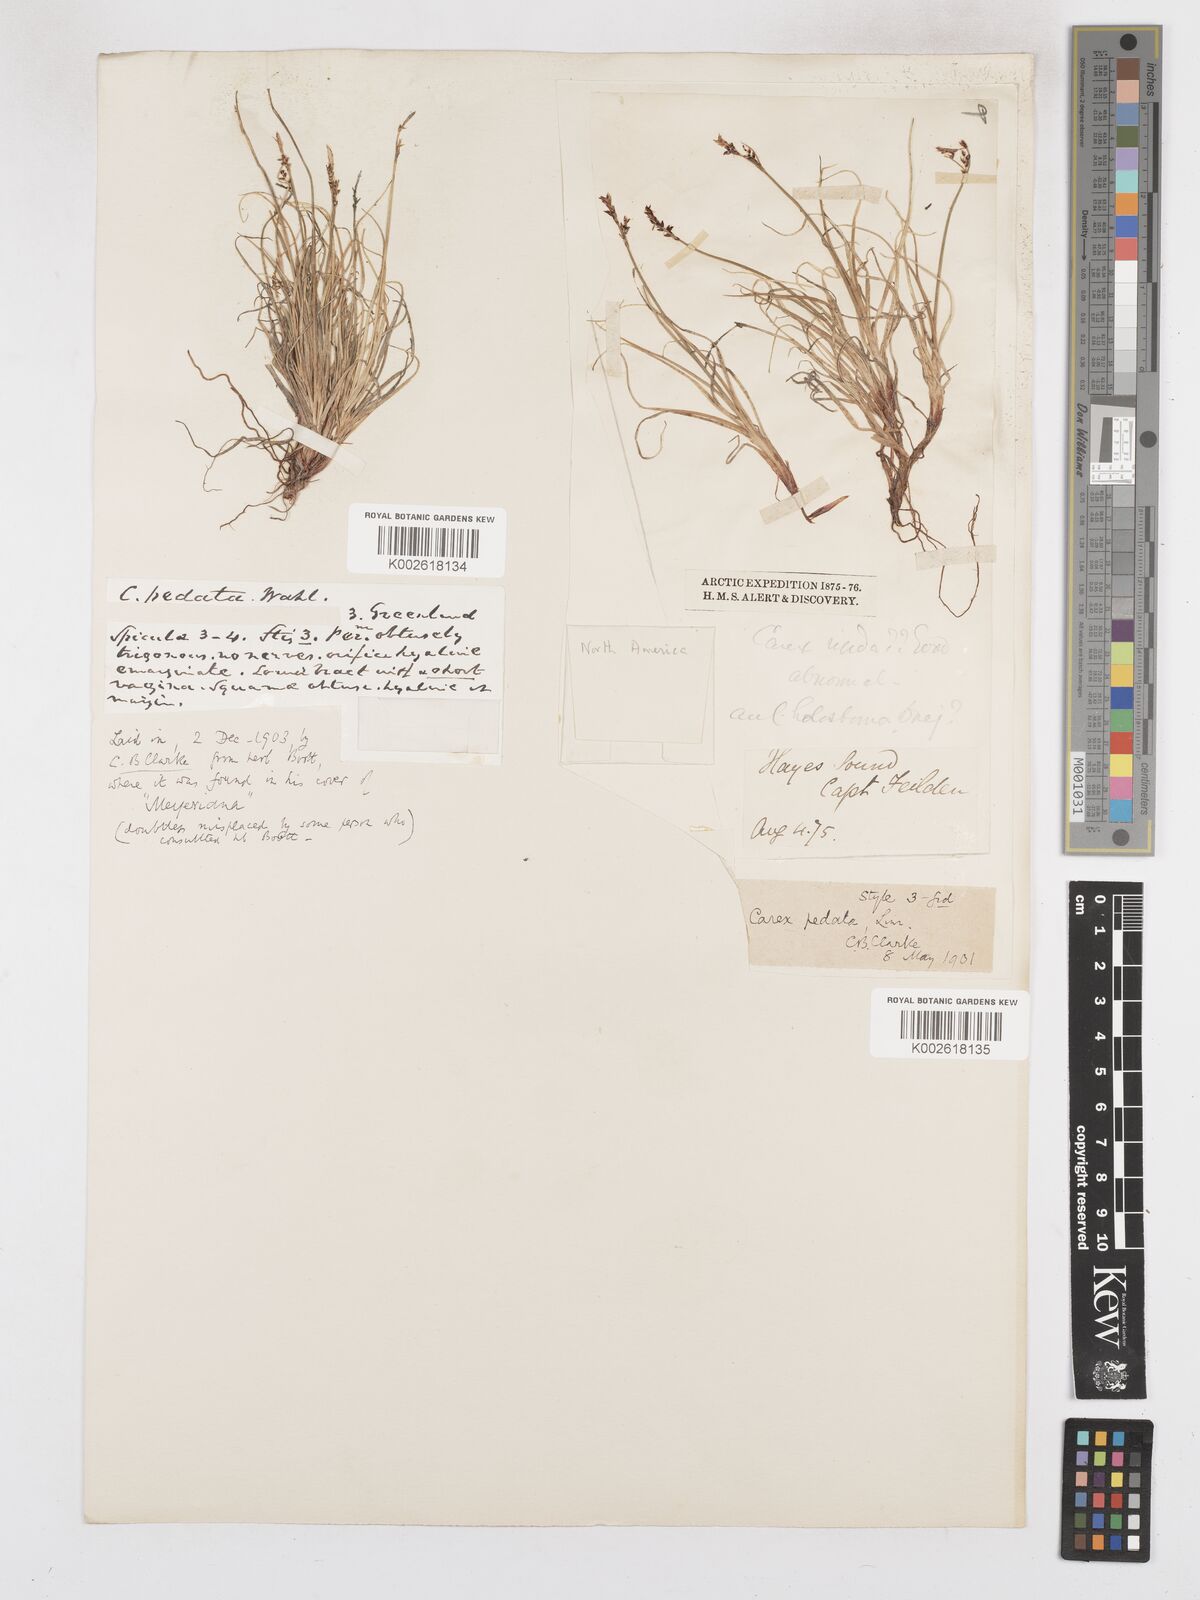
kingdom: Plantae
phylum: Tracheophyta
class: Liliopsida
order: Poales
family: Cyperaceae
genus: Carex
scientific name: Carex glacialis
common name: Newfoundland sedge
